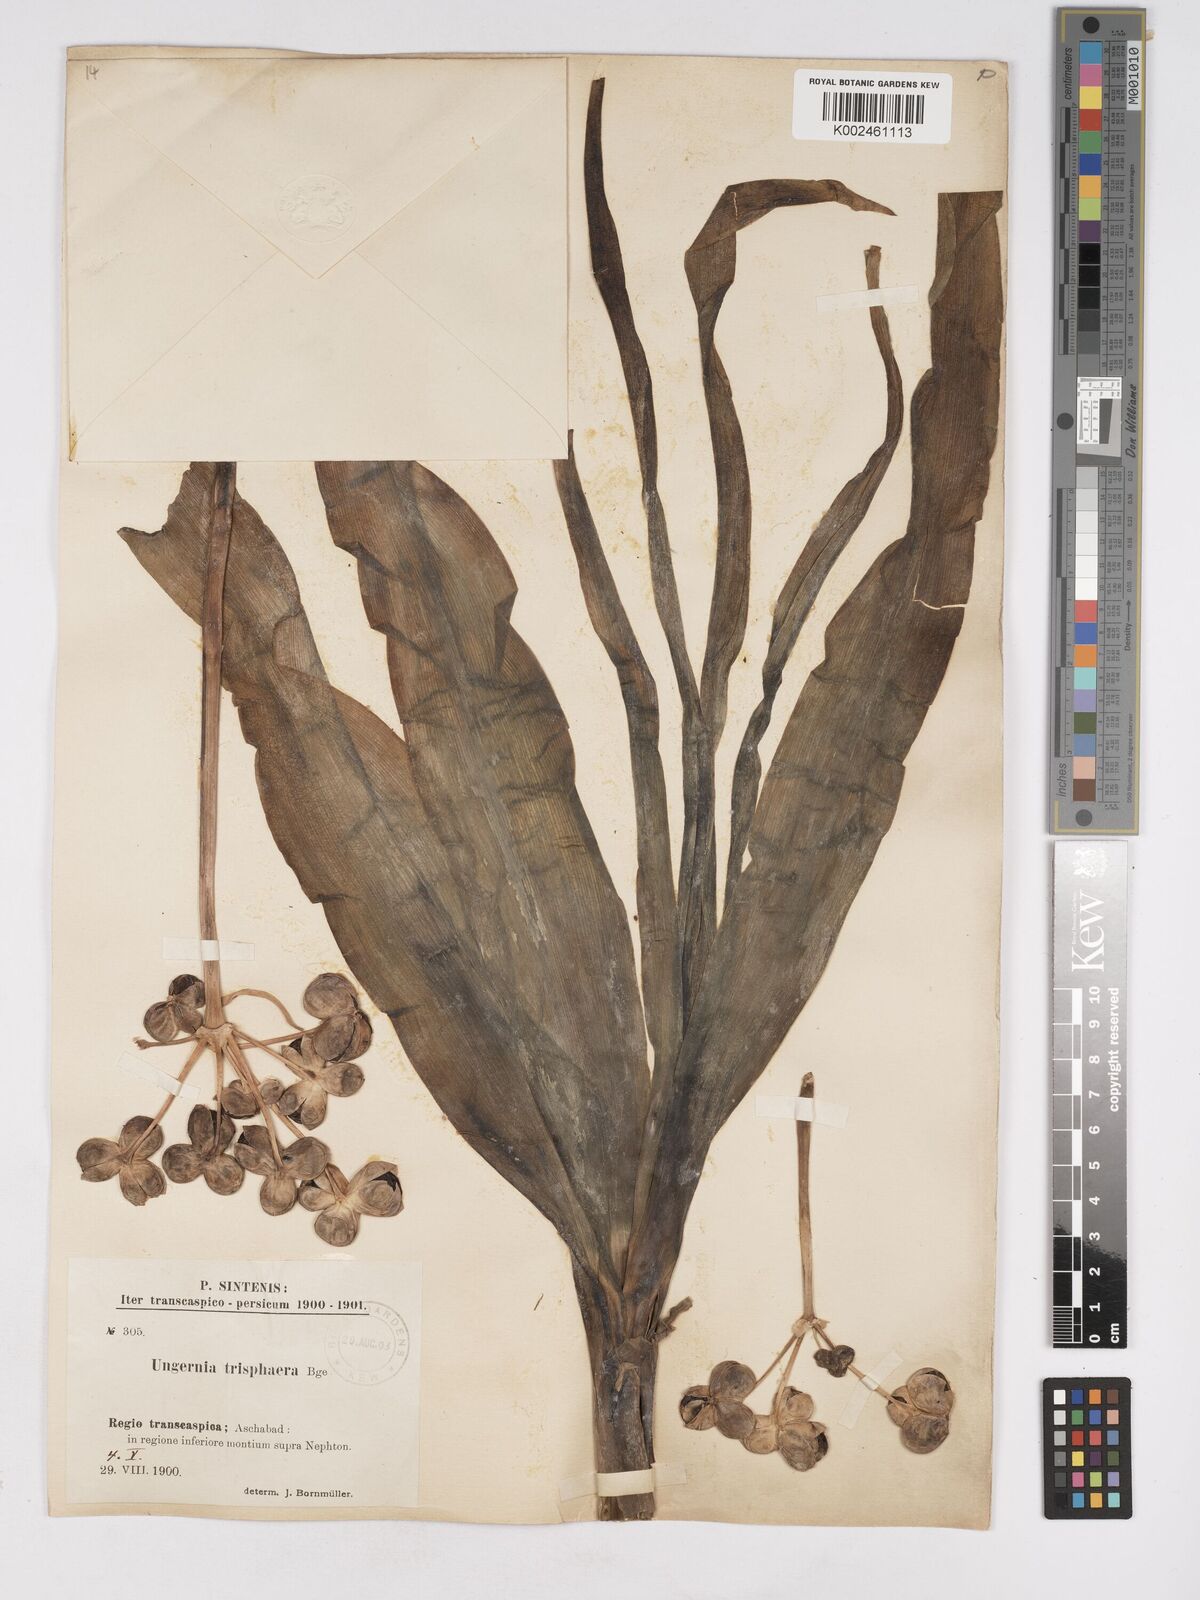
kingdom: Plantae
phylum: Tracheophyta
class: Liliopsida
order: Asparagales
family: Amaryllidaceae
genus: Ungernia
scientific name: Ungernia trisphaera
